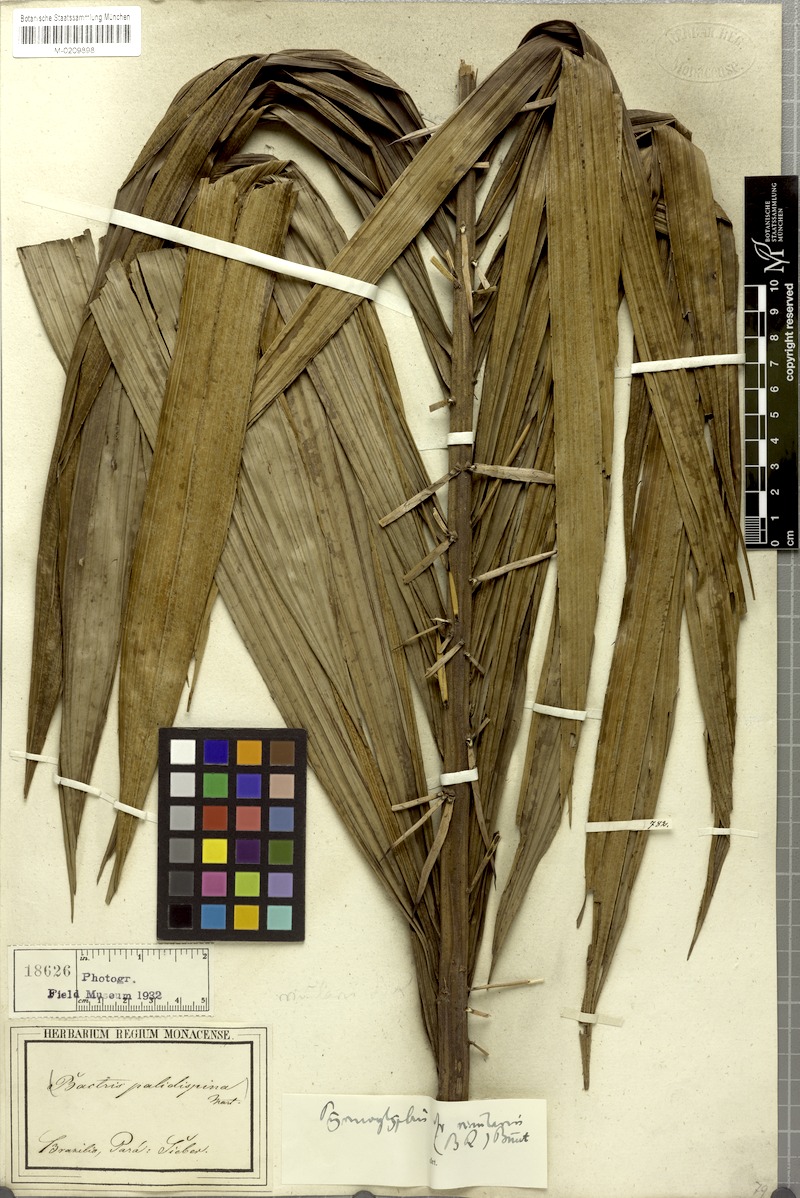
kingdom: Plantae
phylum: Tracheophyta
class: Liliopsida
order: Arecales
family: Arecaceae
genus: Bactris
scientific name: Bactris brongniartii
